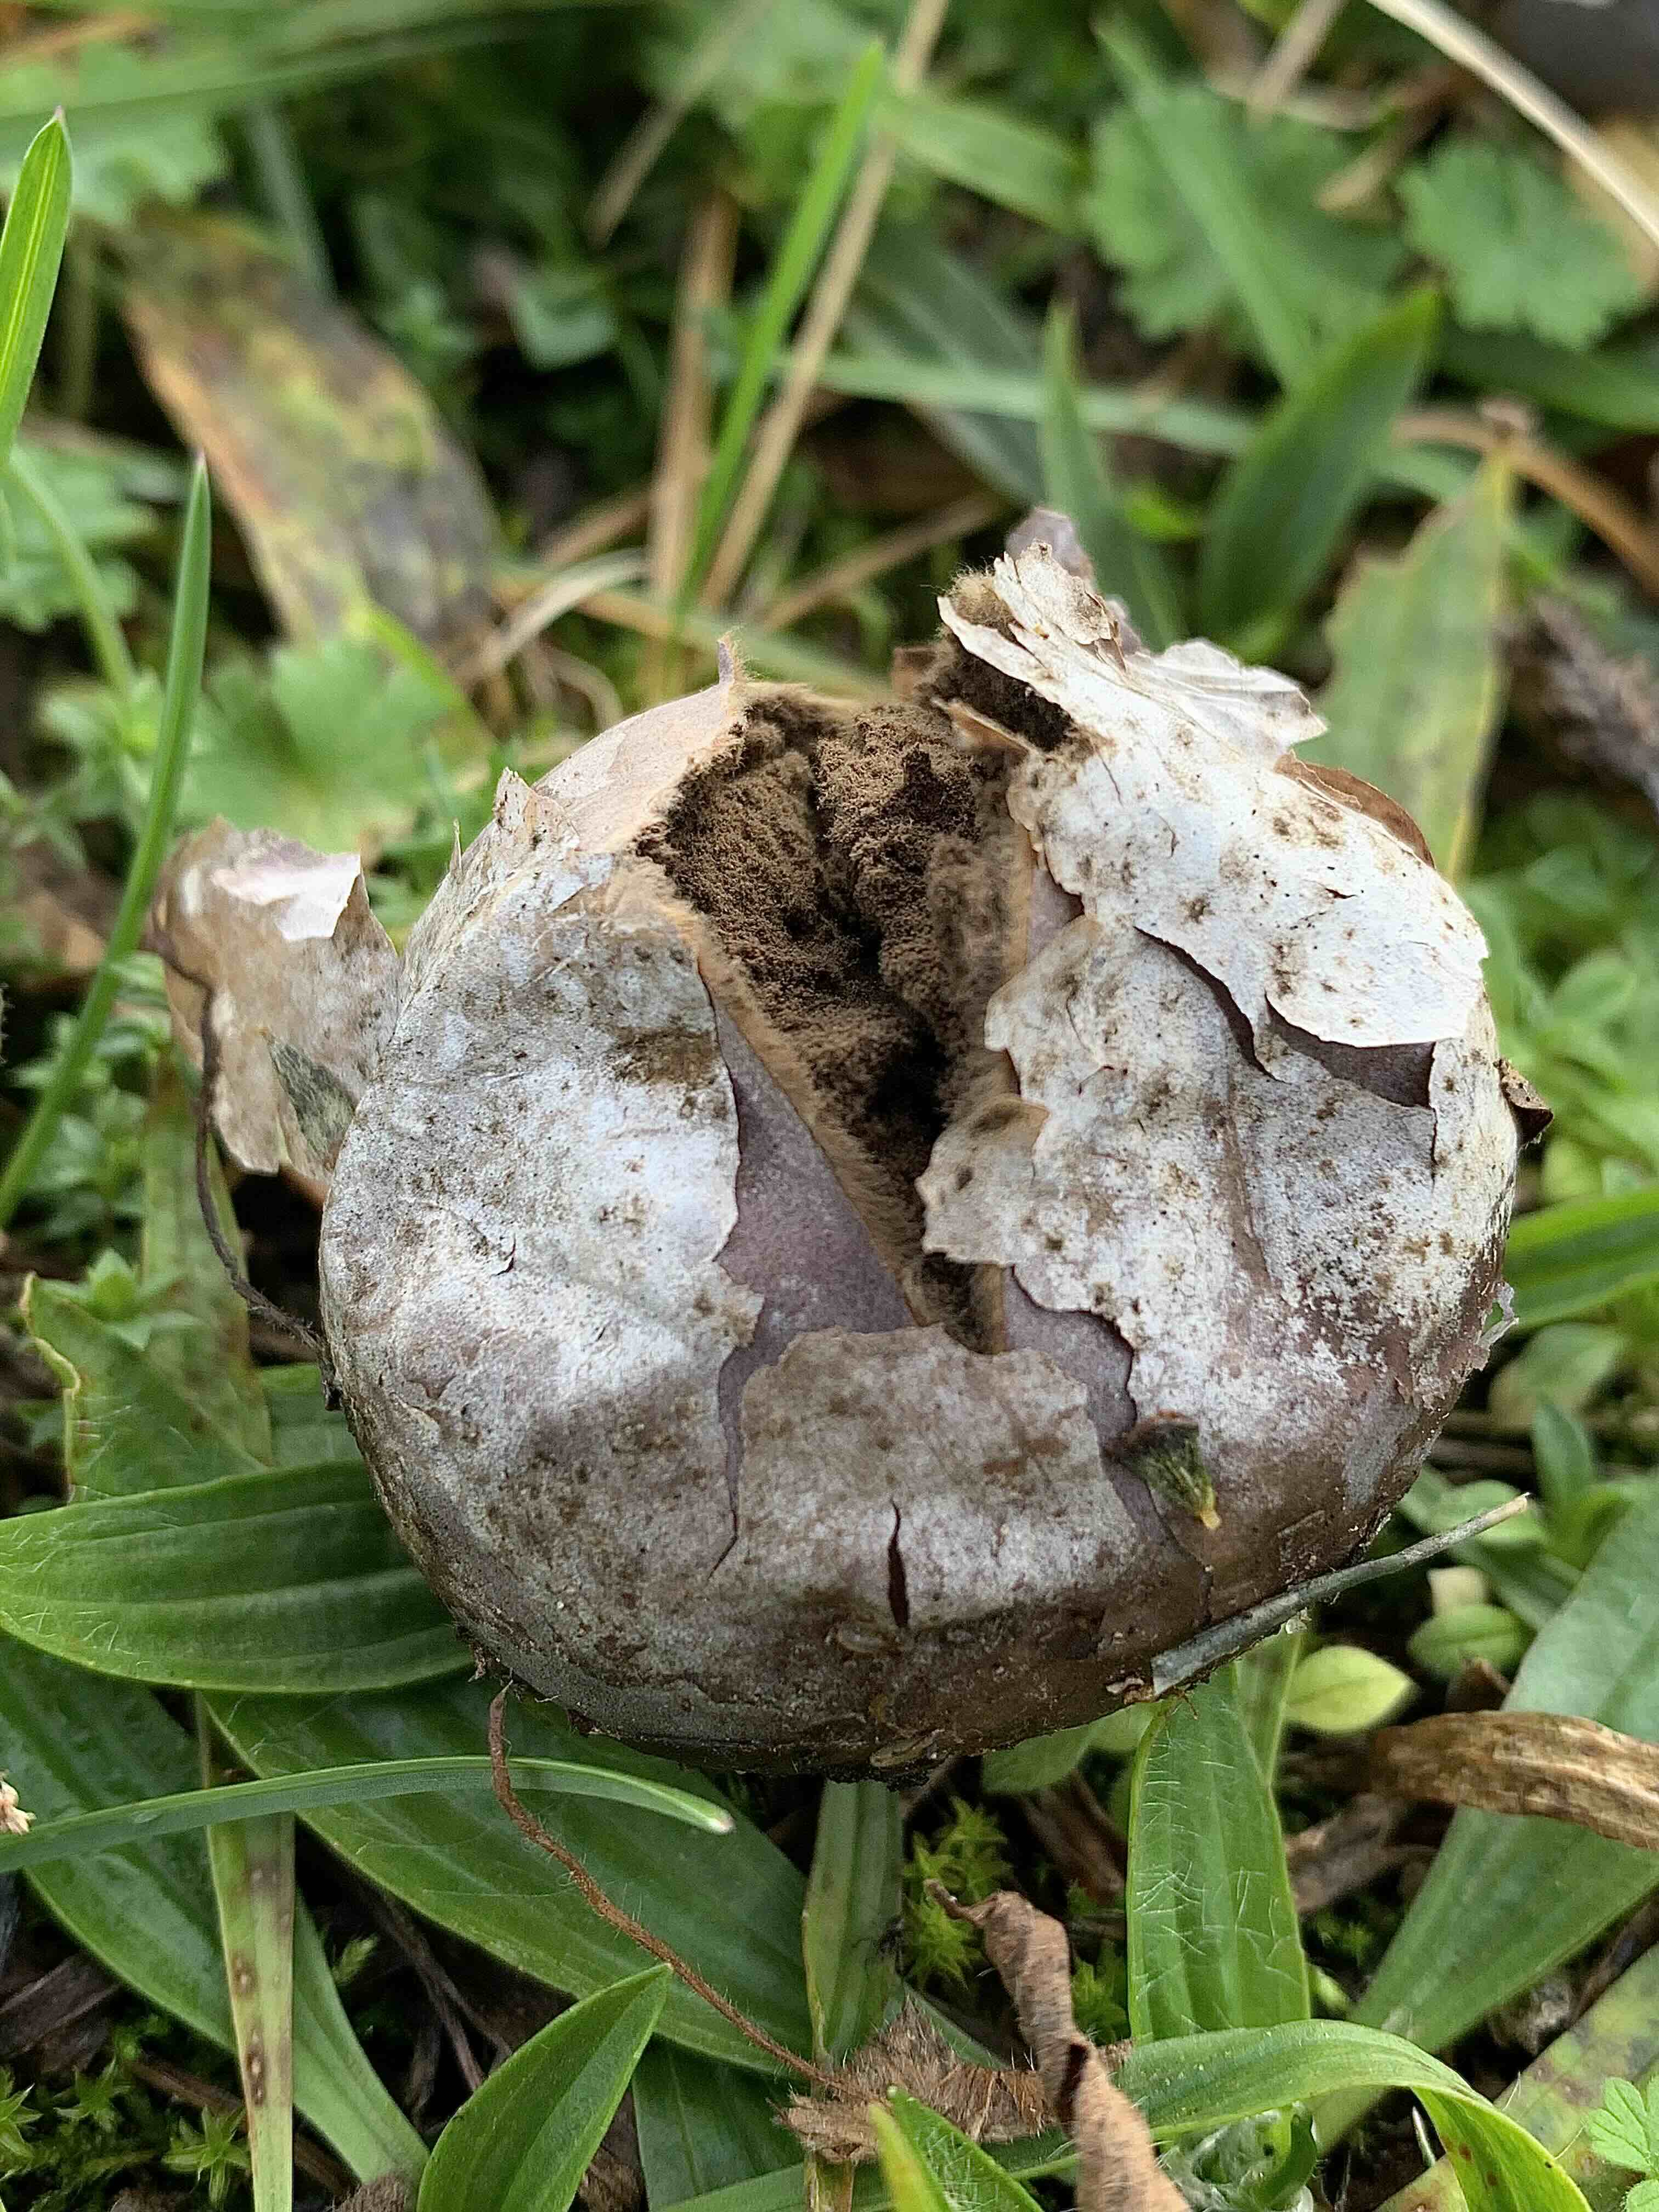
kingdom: Fungi
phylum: Basidiomycota
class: Agaricomycetes
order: Agaricales
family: Lycoperdaceae
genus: Bovista
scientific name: Bovista plumbea
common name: blygrå bovist
